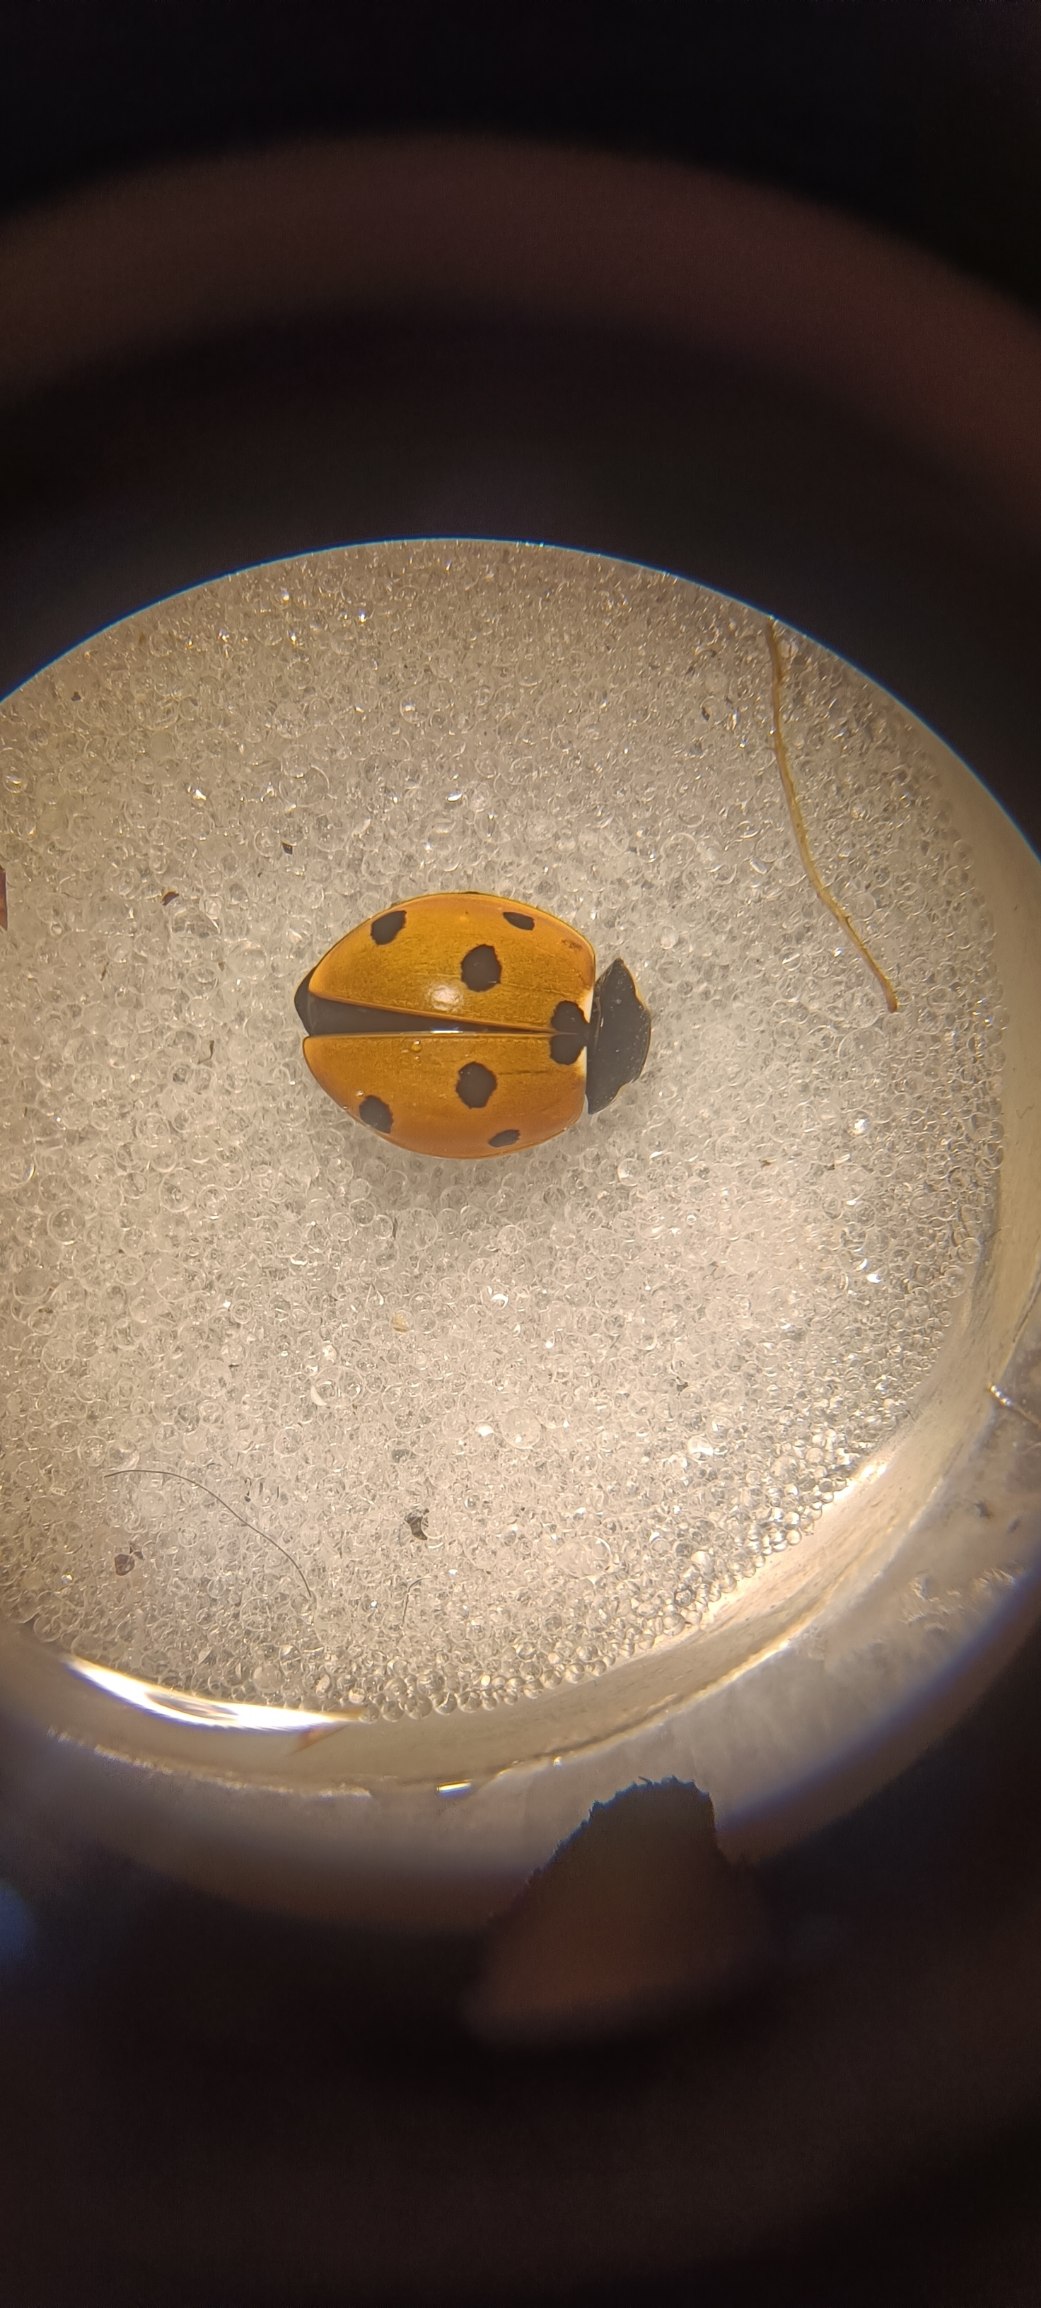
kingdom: Animalia
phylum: Arthropoda
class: Insecta
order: Coleoptera
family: Coccinellidae
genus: Coccinella
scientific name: Coccinella septempunctata
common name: Syvplettet mariehøne
